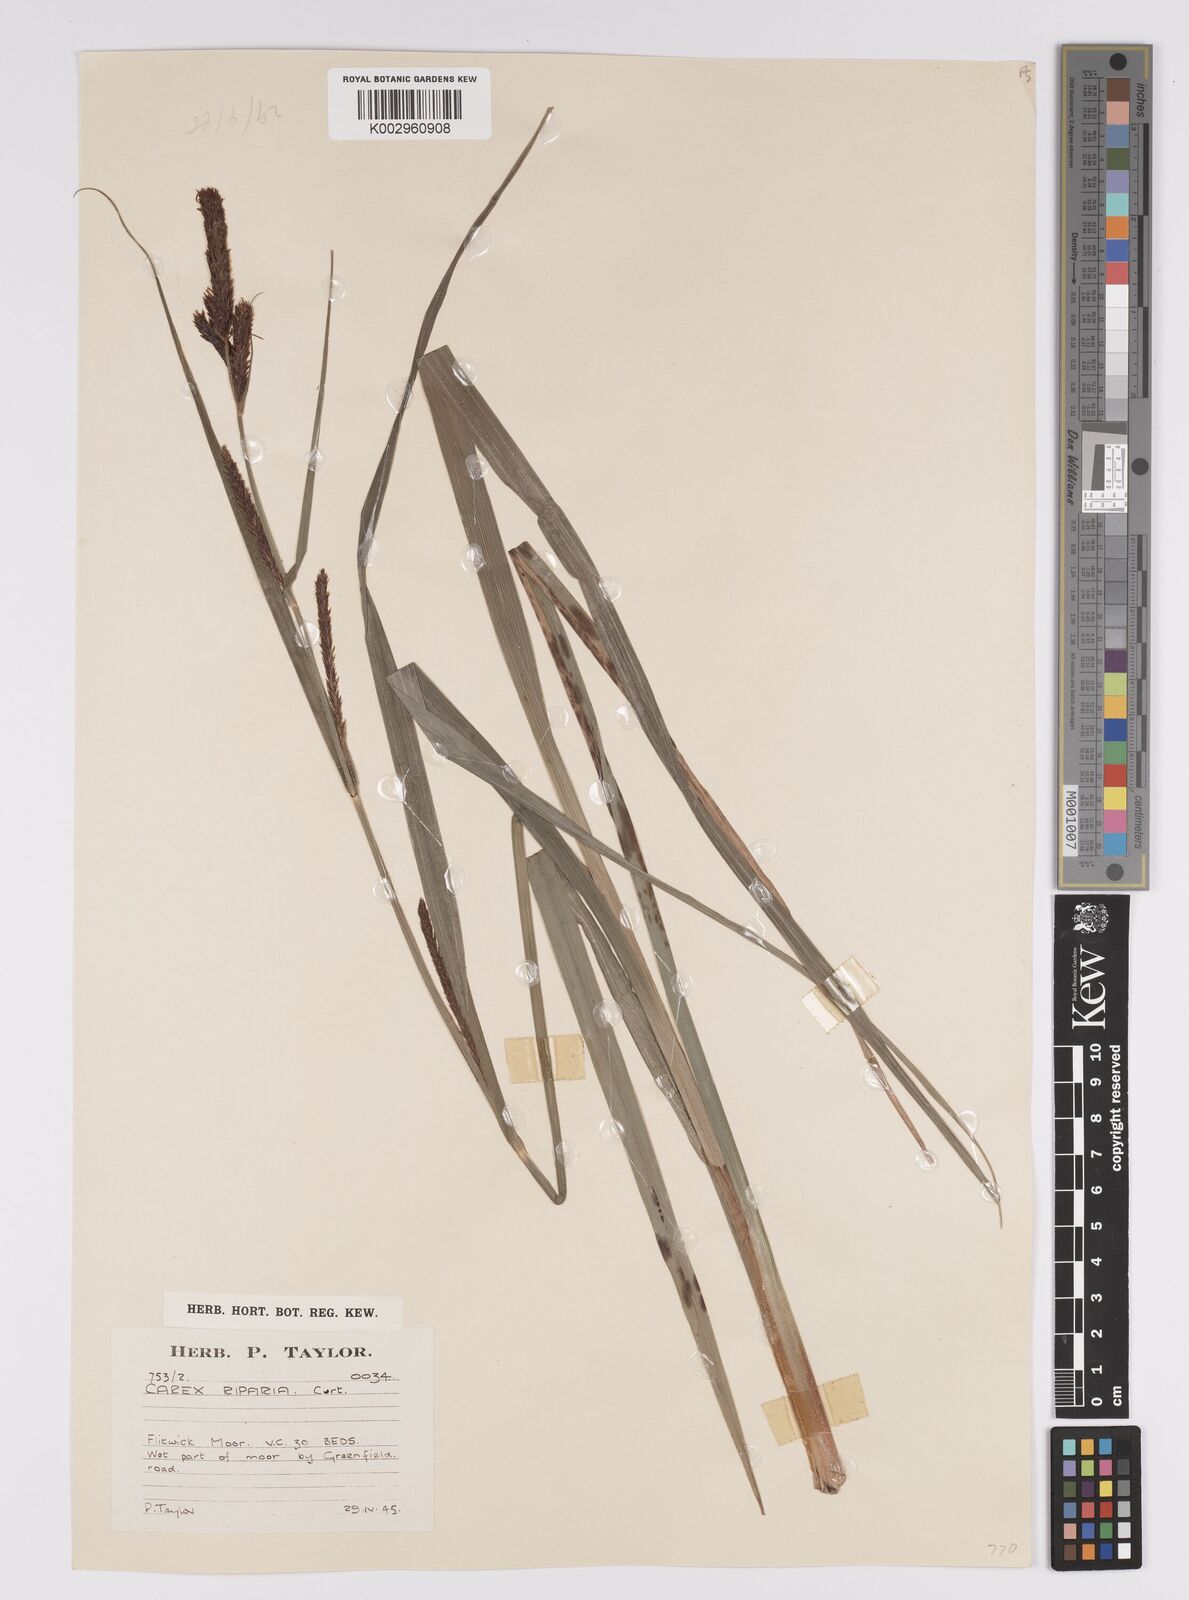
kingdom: Plantae
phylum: Tracheophyta
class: Liliopsida
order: Poales
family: Cyperaceae
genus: Carex
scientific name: Carex riparia
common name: Greater pond-sedge
